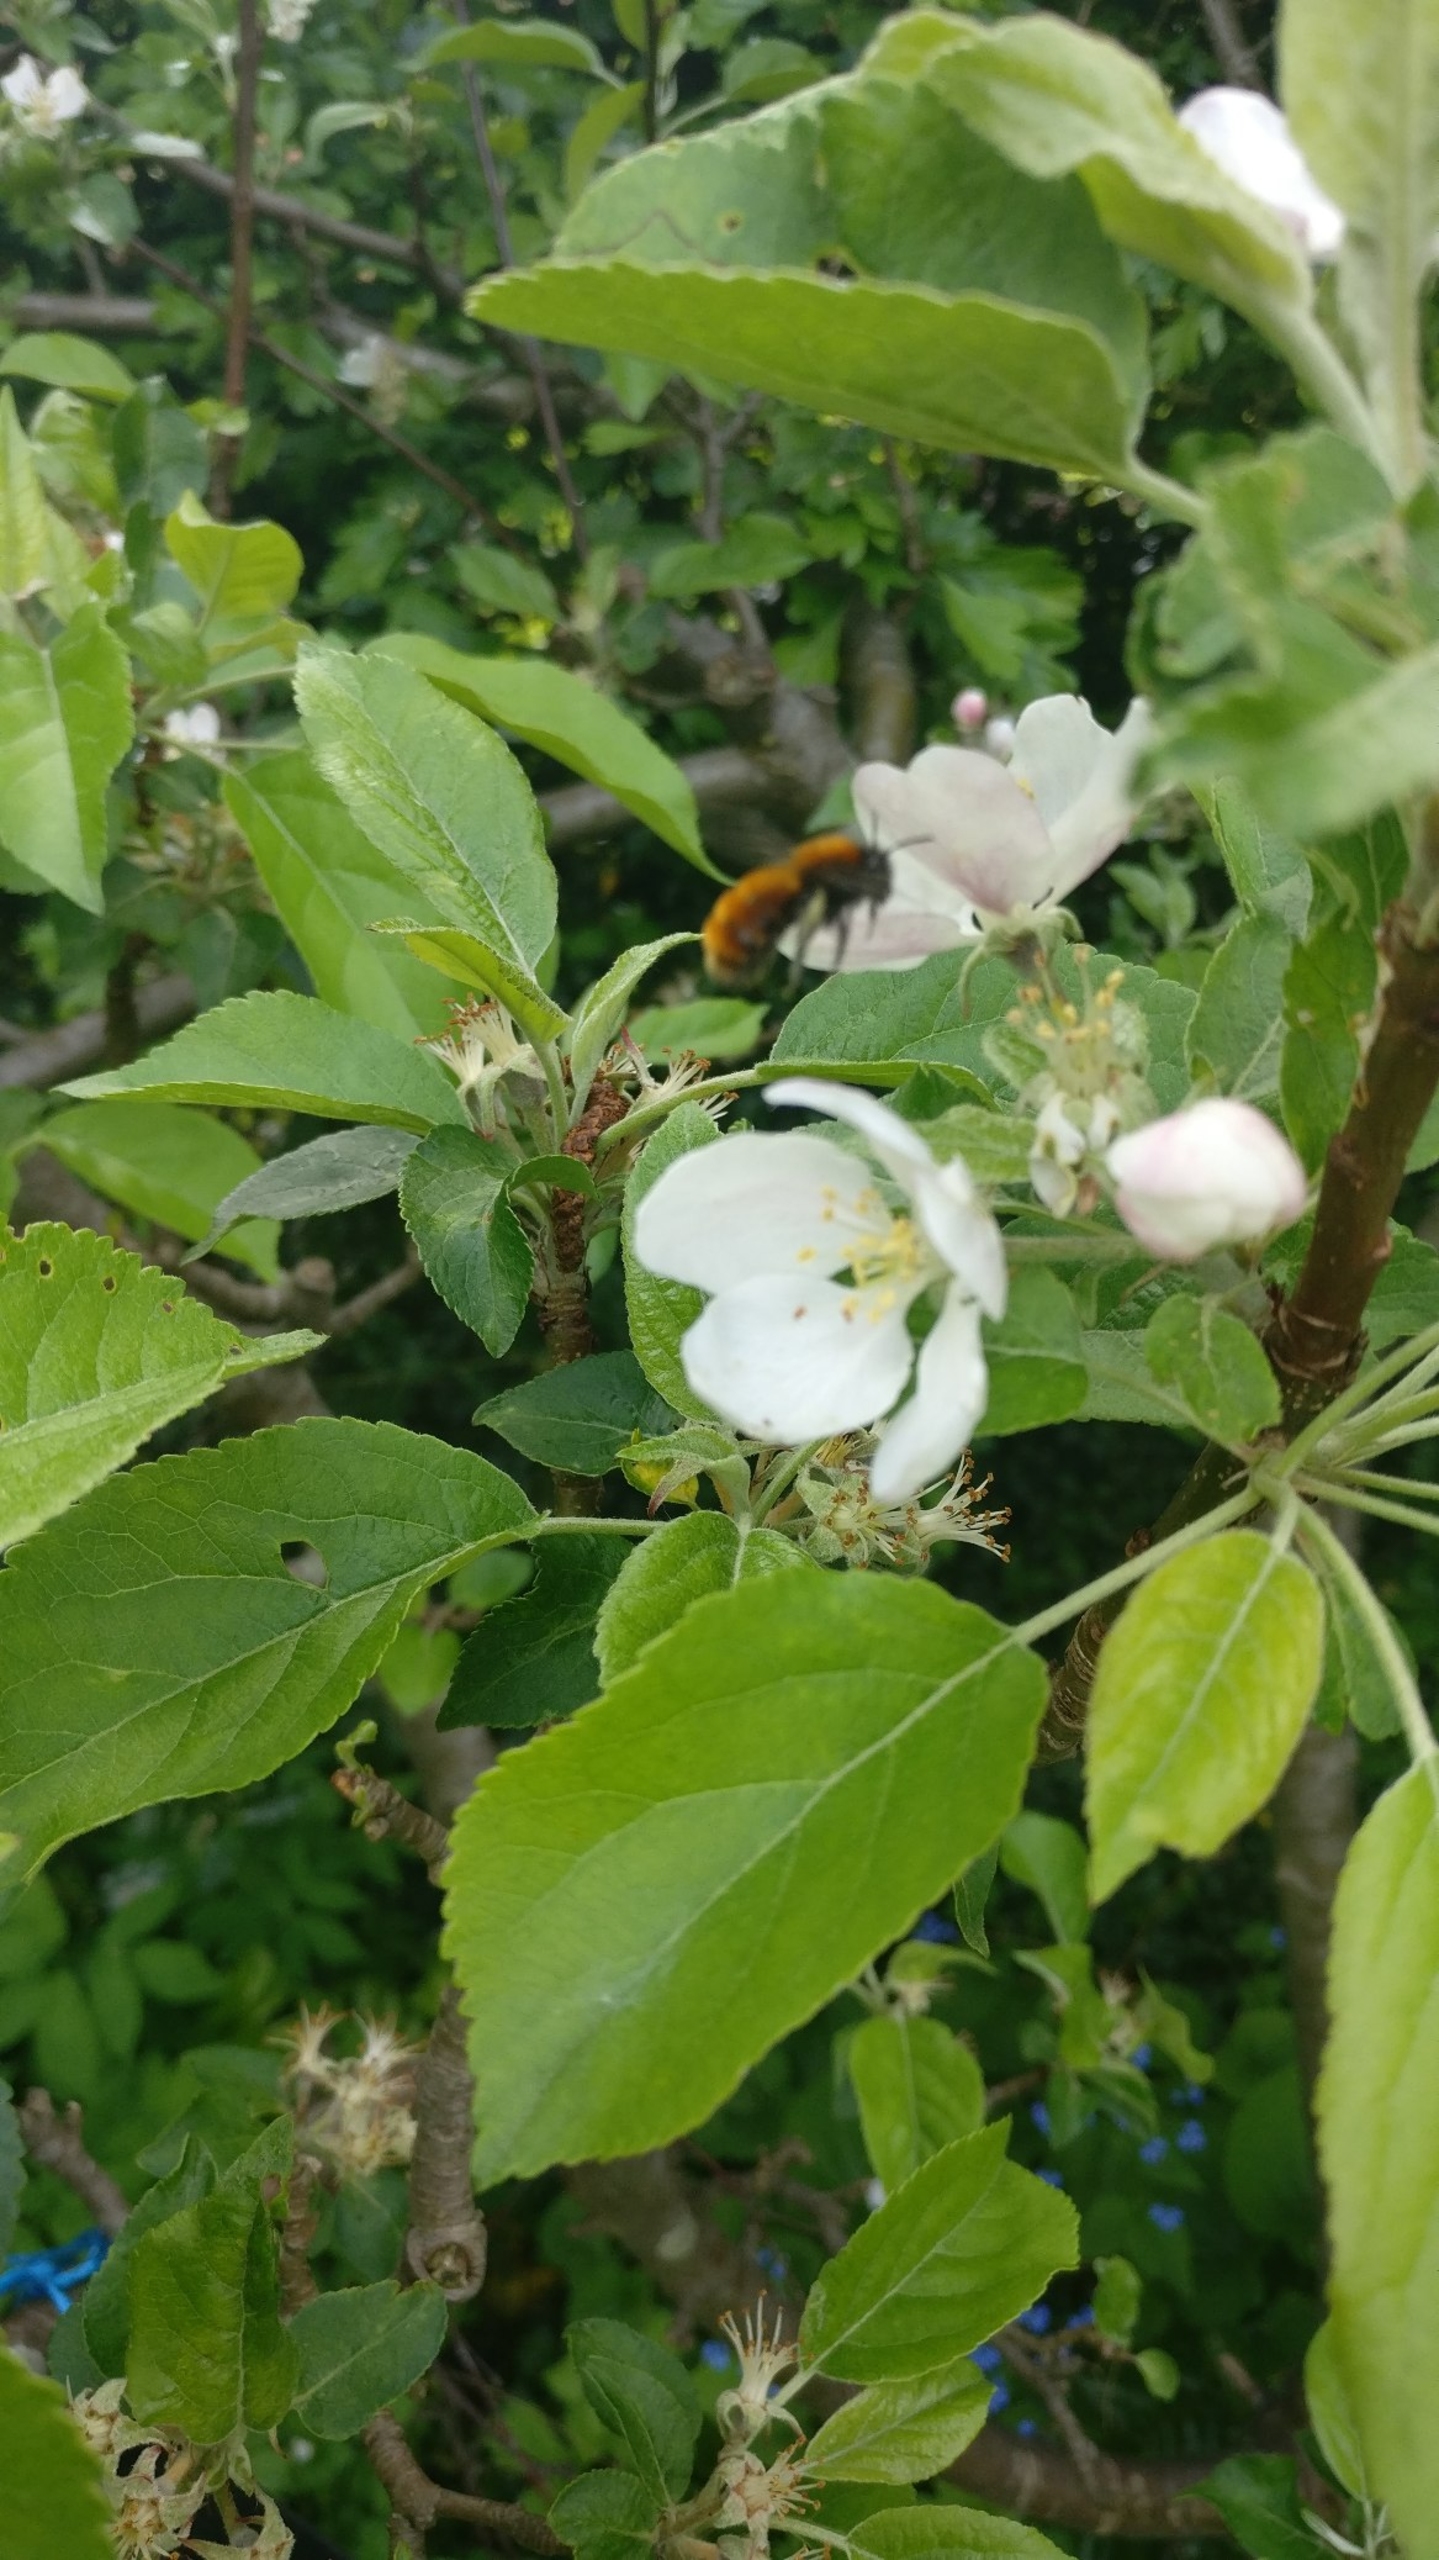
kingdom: Animalia
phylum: Arthropoda
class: Insecta
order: Hymenoptera
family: Andrenidae
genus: Andrena
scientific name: Andrena fulva
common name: Rødpelset jordbi
